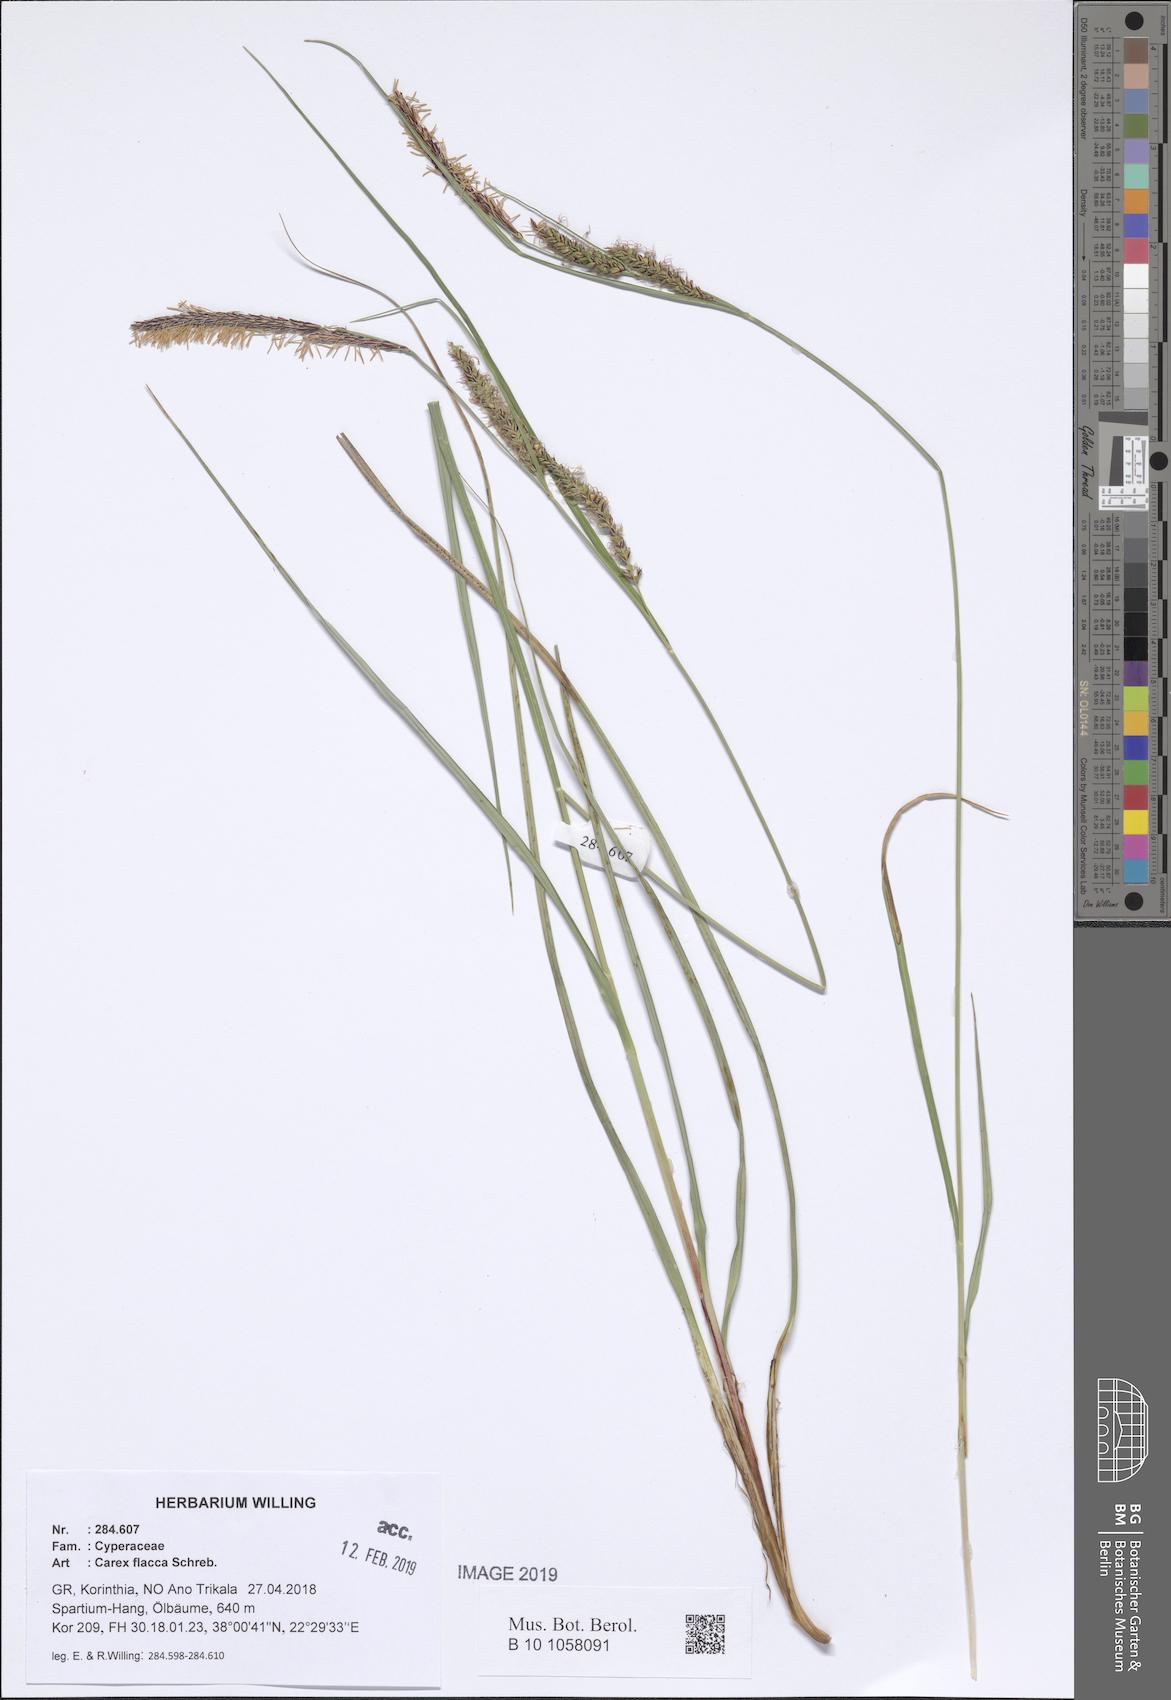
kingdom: Plantae
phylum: Tracheophyta
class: Liliopsida
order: Poales
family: Cyperaceae
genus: Carex
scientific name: Carex flacca
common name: Glaucous sedge
